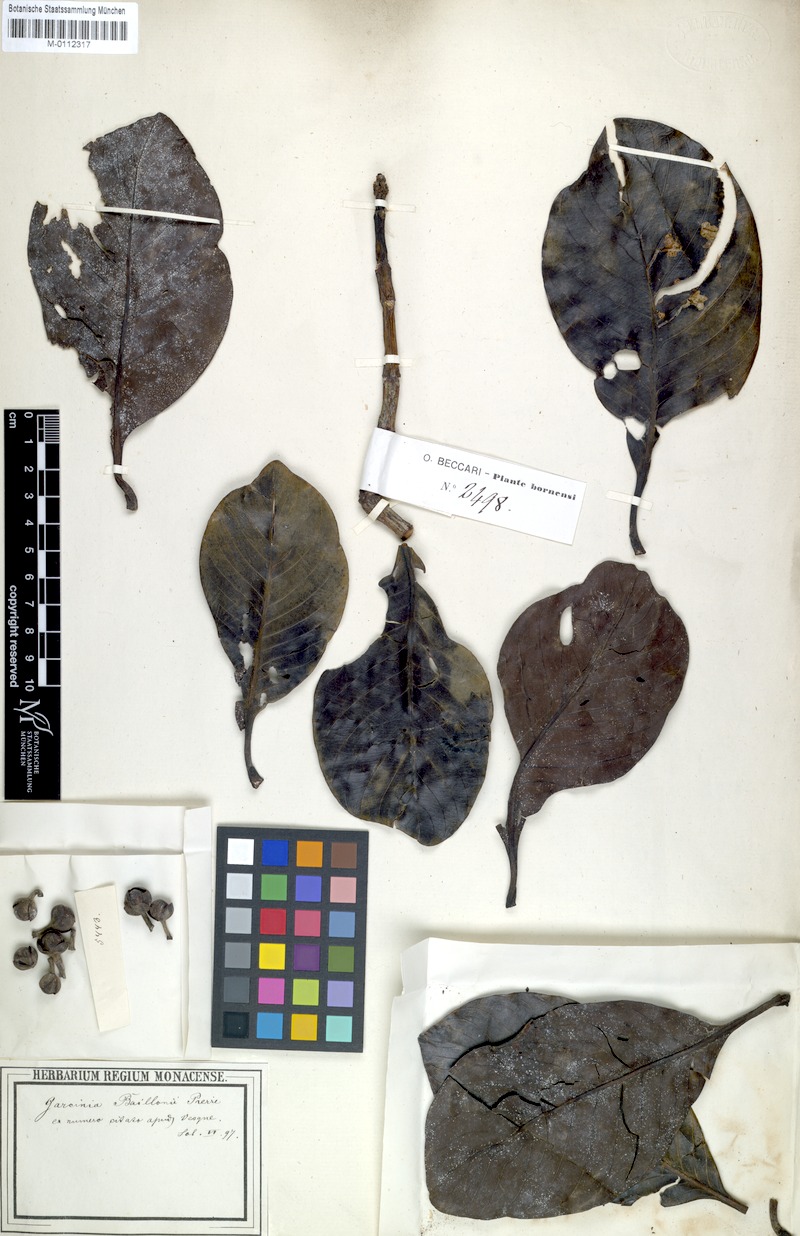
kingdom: Plantae
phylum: Tracheophyta
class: Magnoliopsida
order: Malpighiales
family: Clusiaceae
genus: Garcinia
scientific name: Garcinia maingayi
